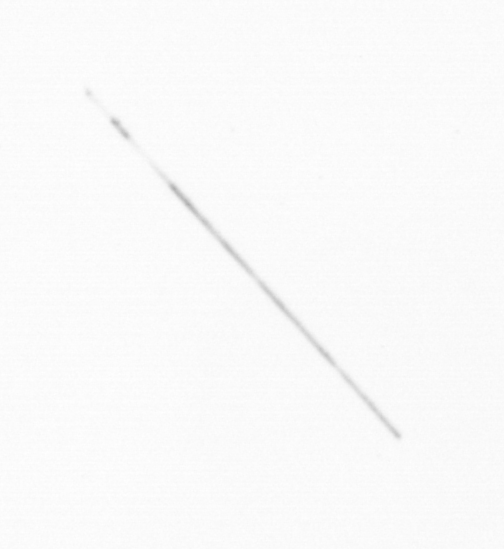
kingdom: Chromista
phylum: Ochrophyta
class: Bacillariophyceae
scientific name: Bacillariophyceae
